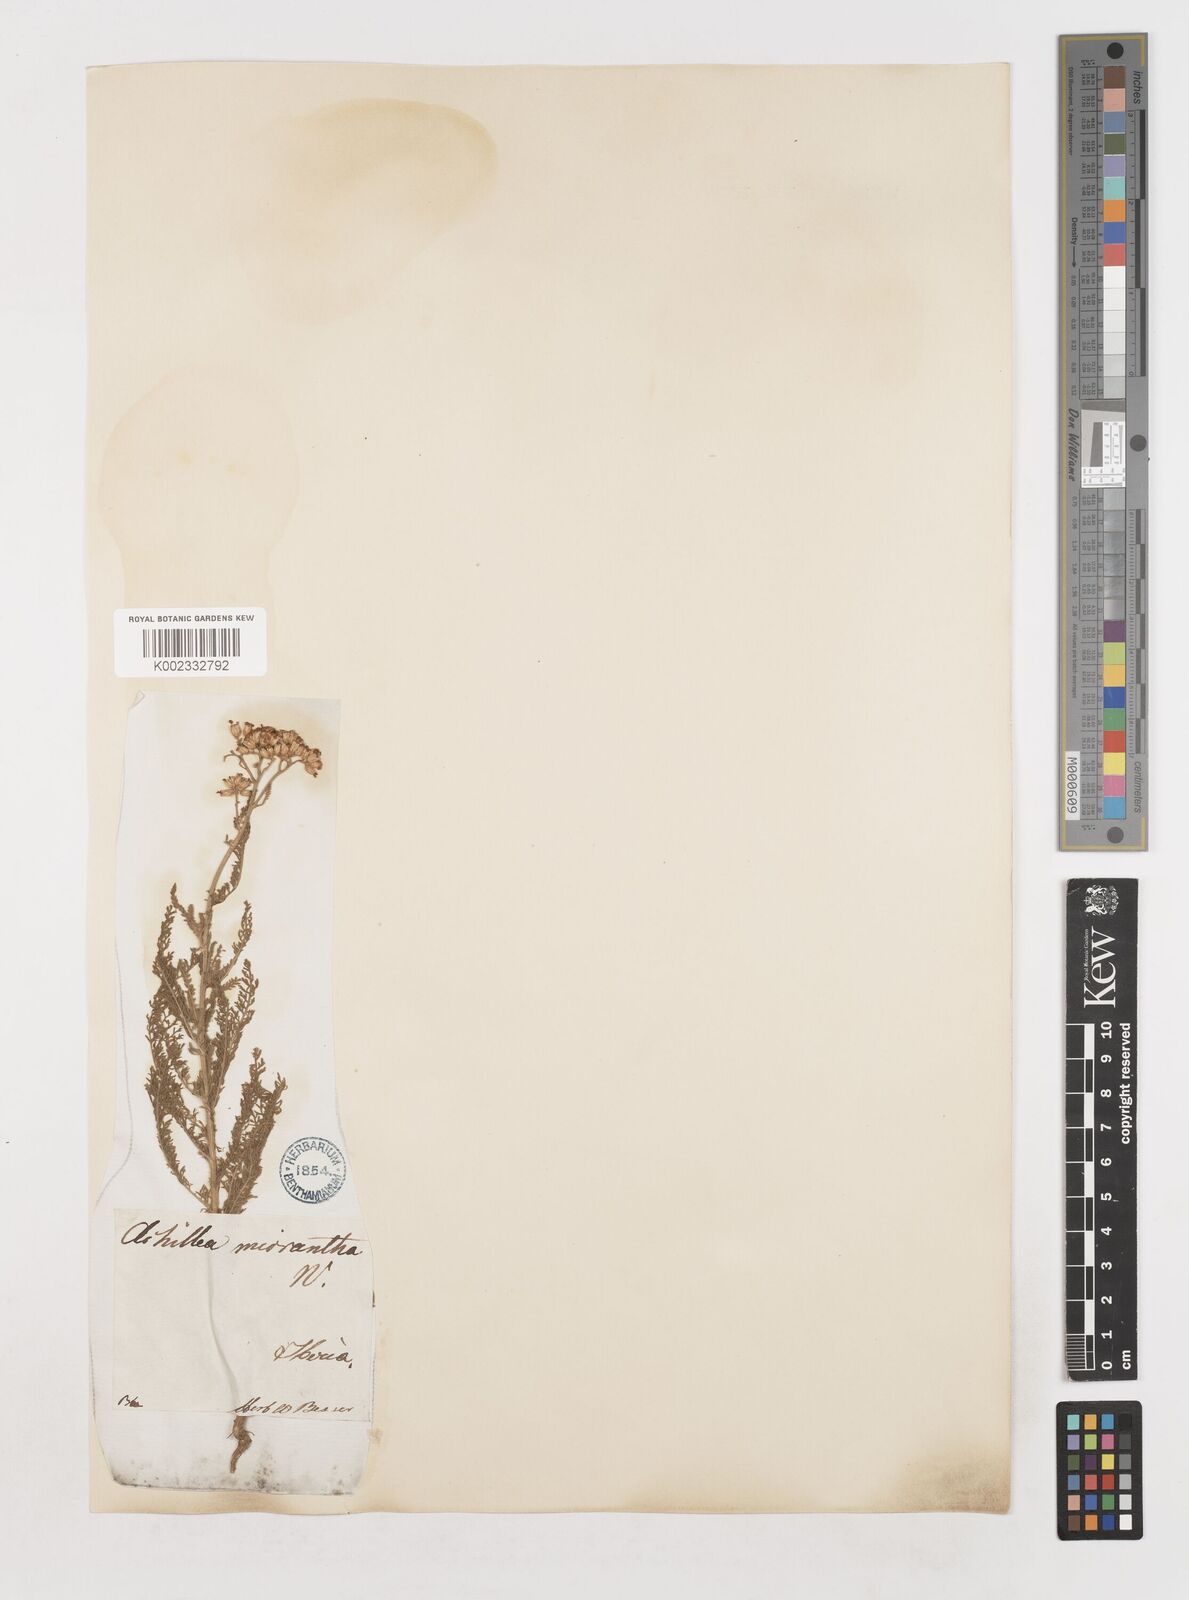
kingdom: Plantae
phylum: Tracheophyta
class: Magnoliopsida
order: Asterales
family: Asteraceae
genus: Achillea
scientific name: Achillea arabica
